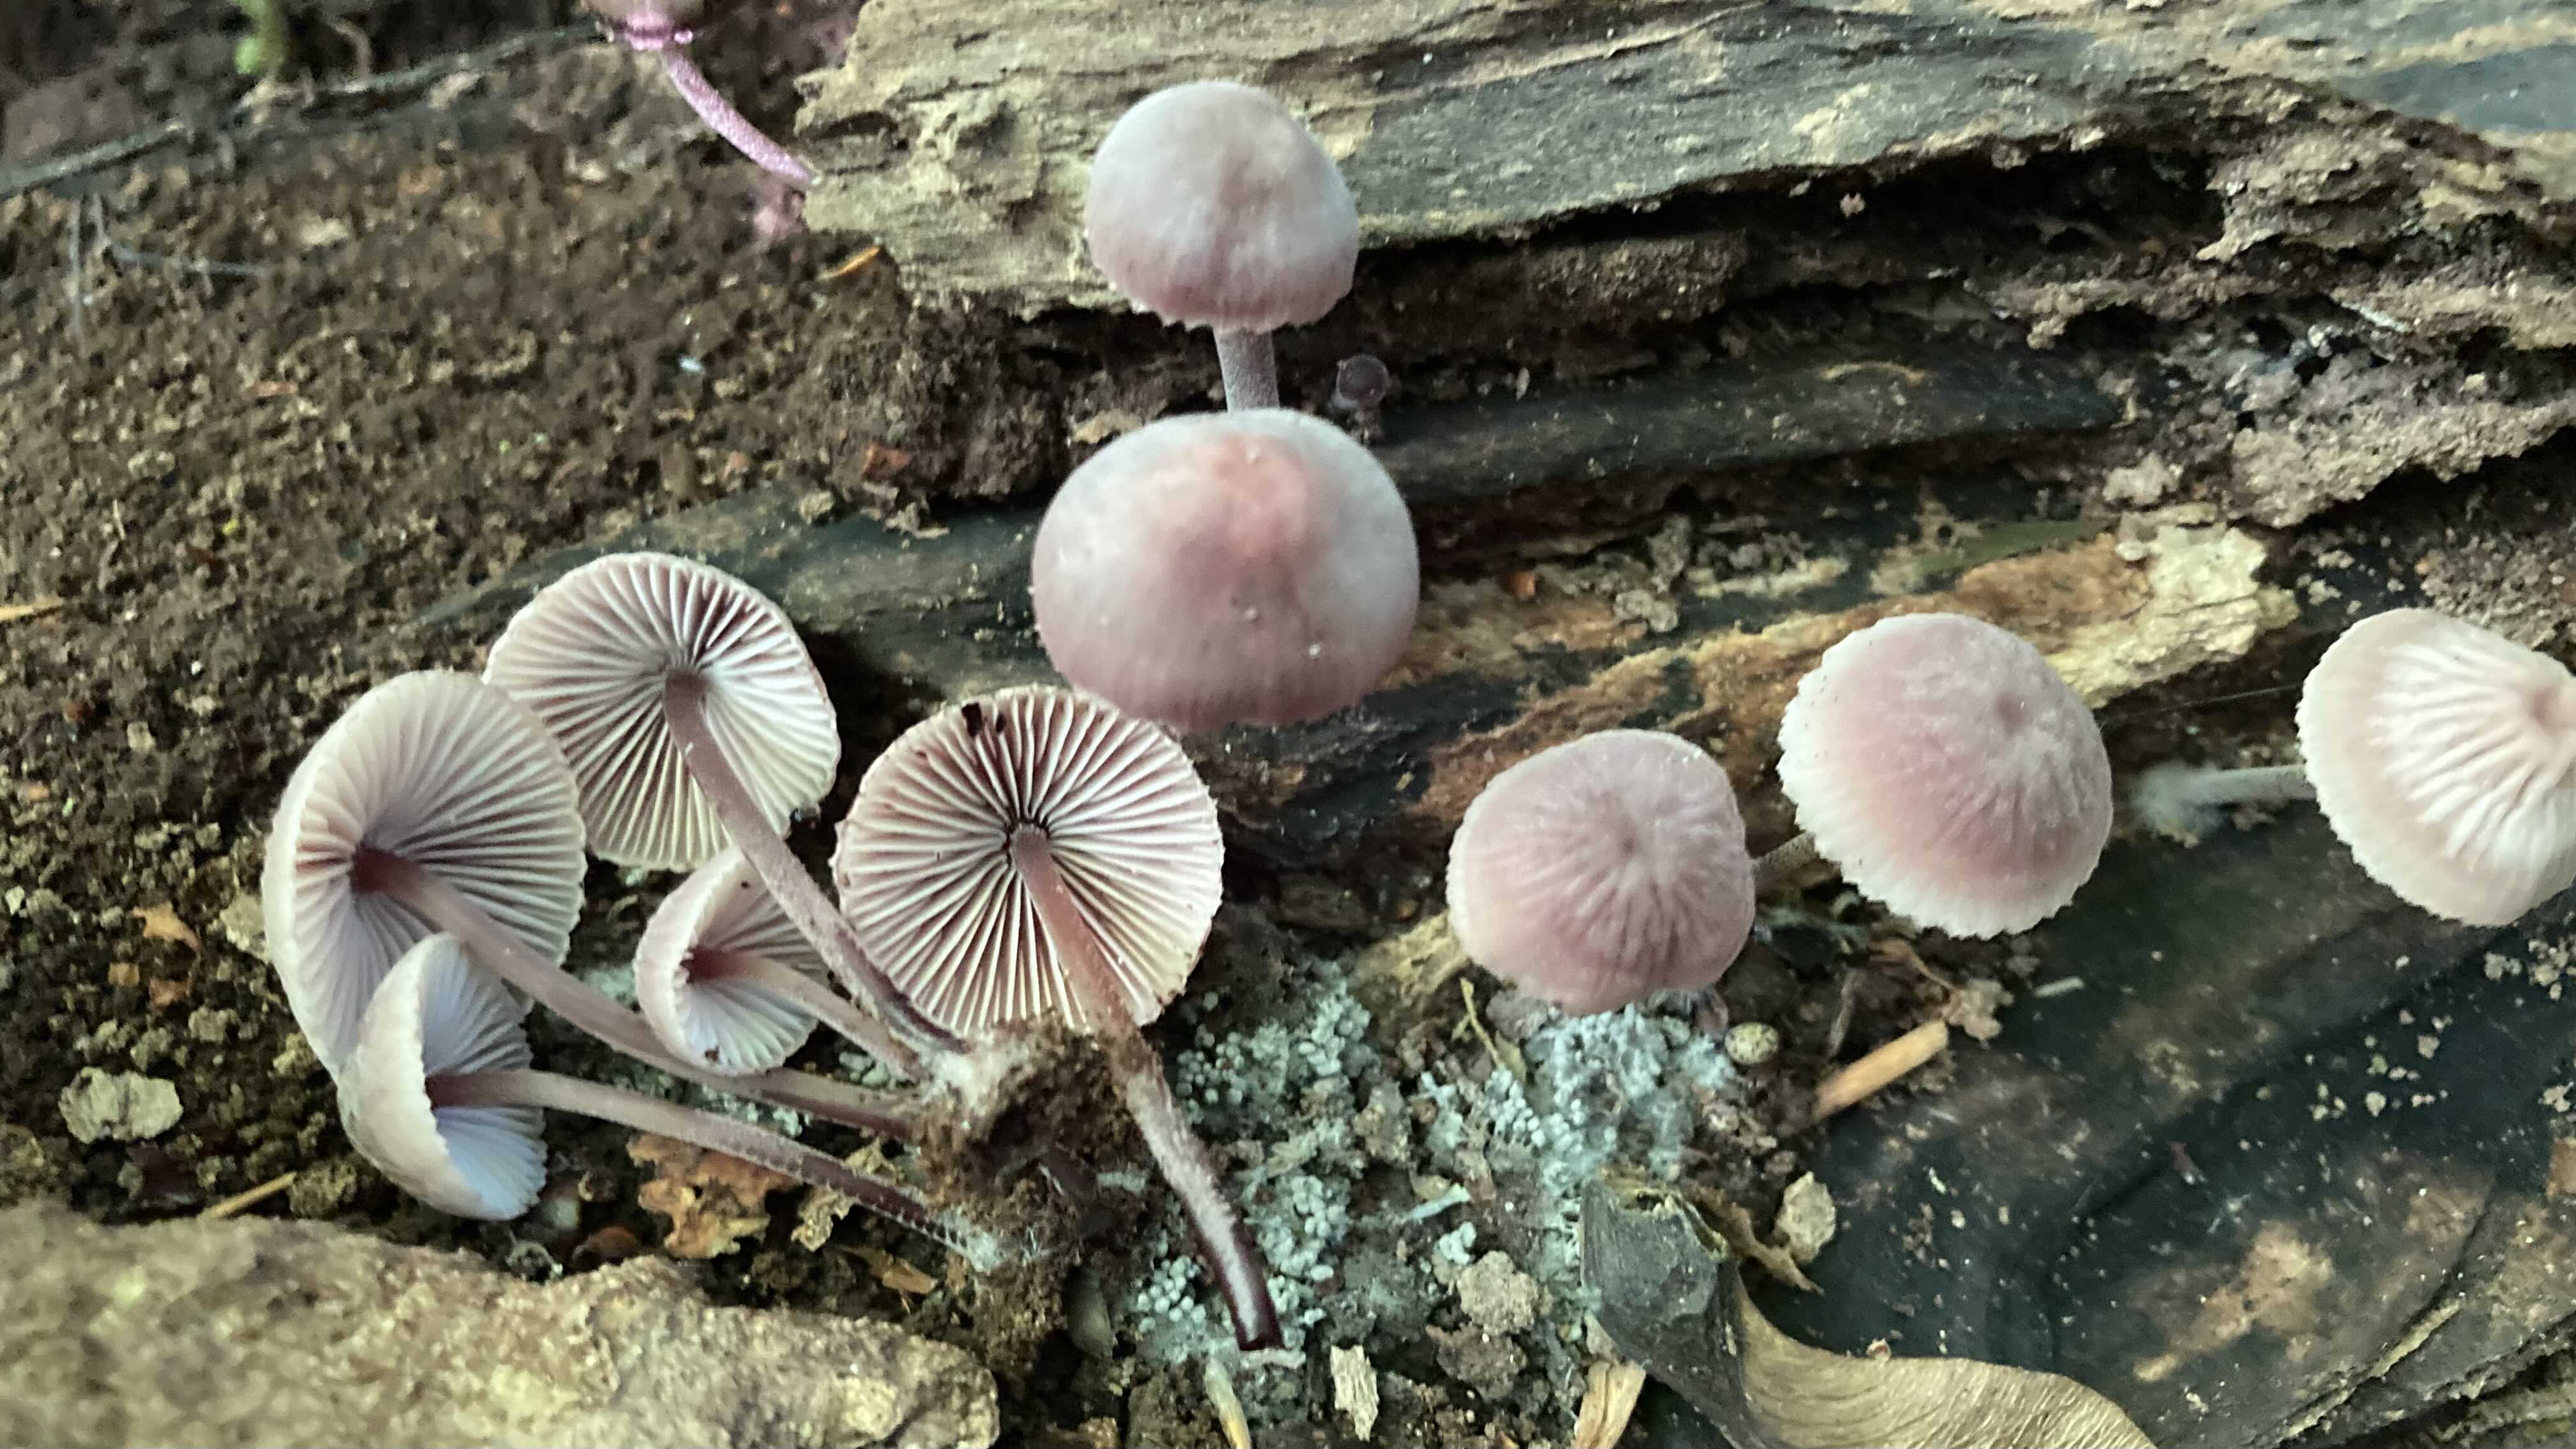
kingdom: Fungi
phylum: Basidiomycota
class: Agaricomycetes
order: Agaricales
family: Mycenaceae
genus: Mycena
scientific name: Mycena haematopus
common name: blødende huesvamp
